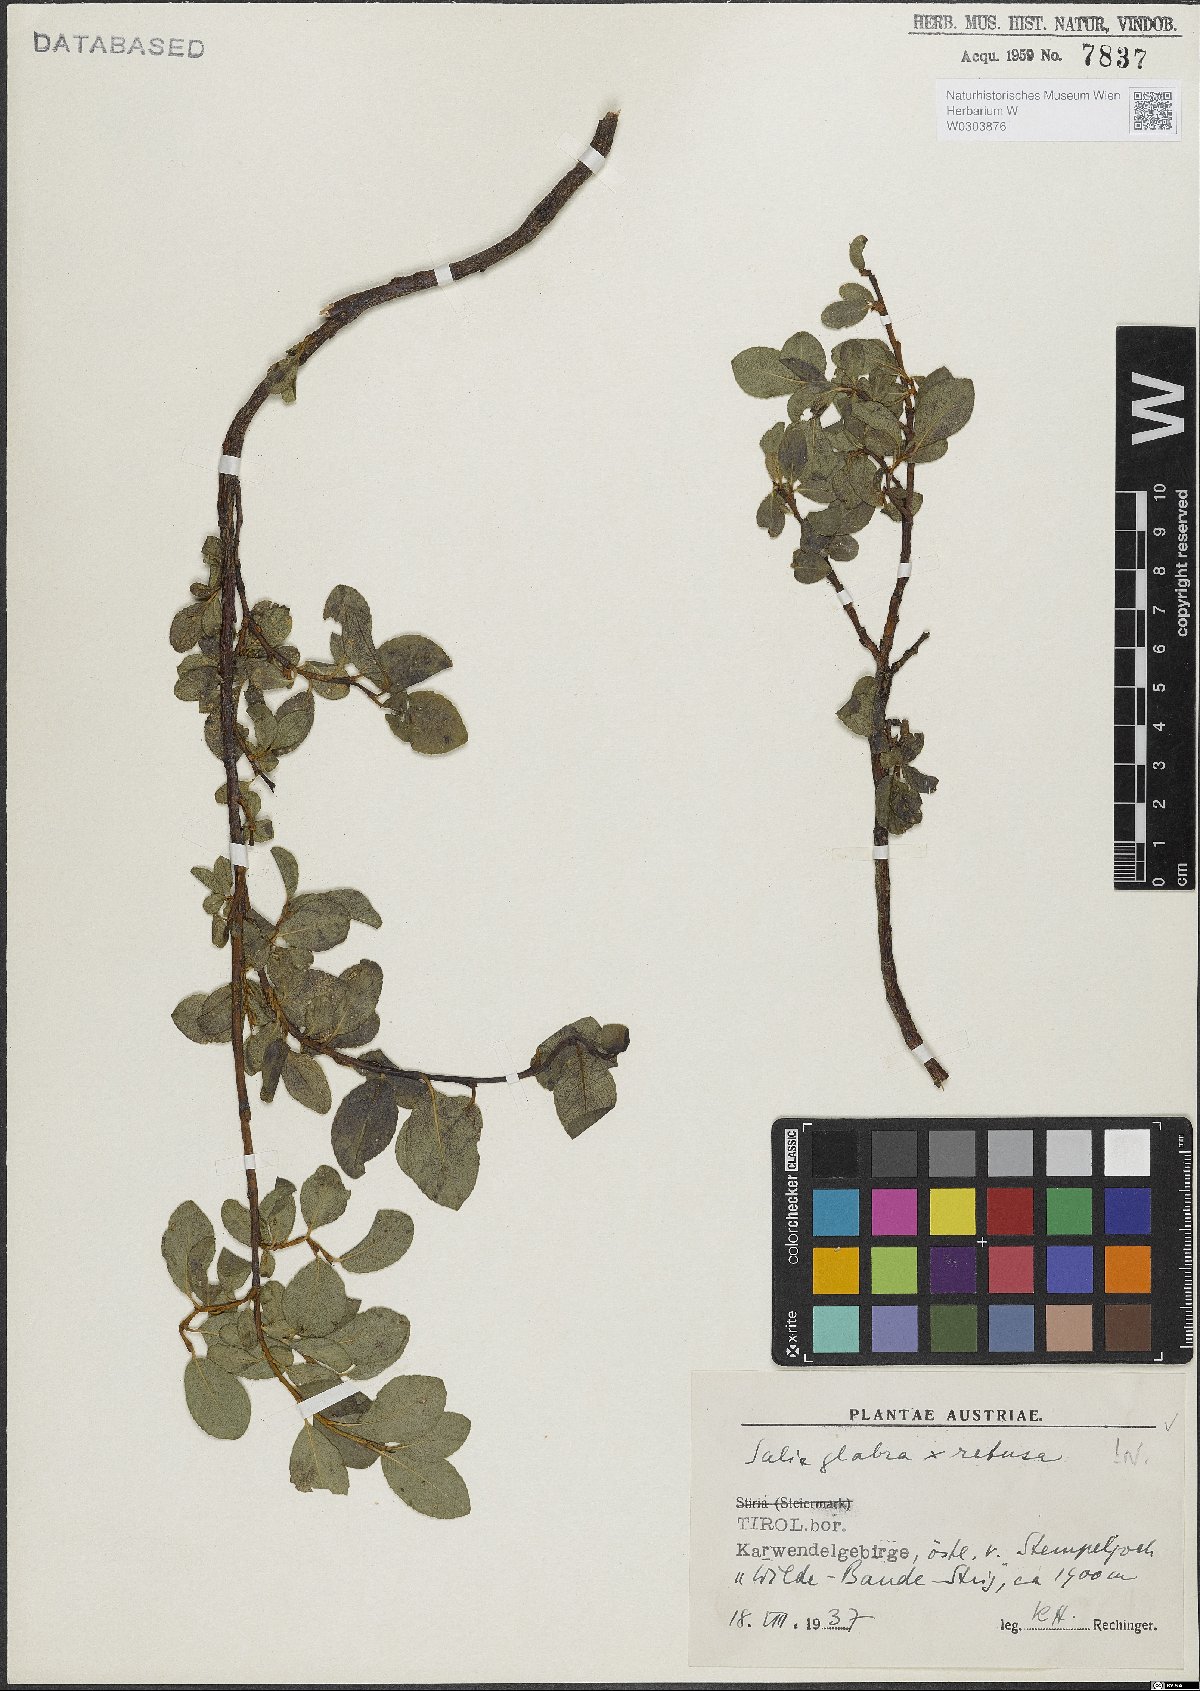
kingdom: Plantae
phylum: Tracheophyta
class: Magnoliopsida
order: Malpighiales
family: Salicaceae
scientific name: Salicaceae
